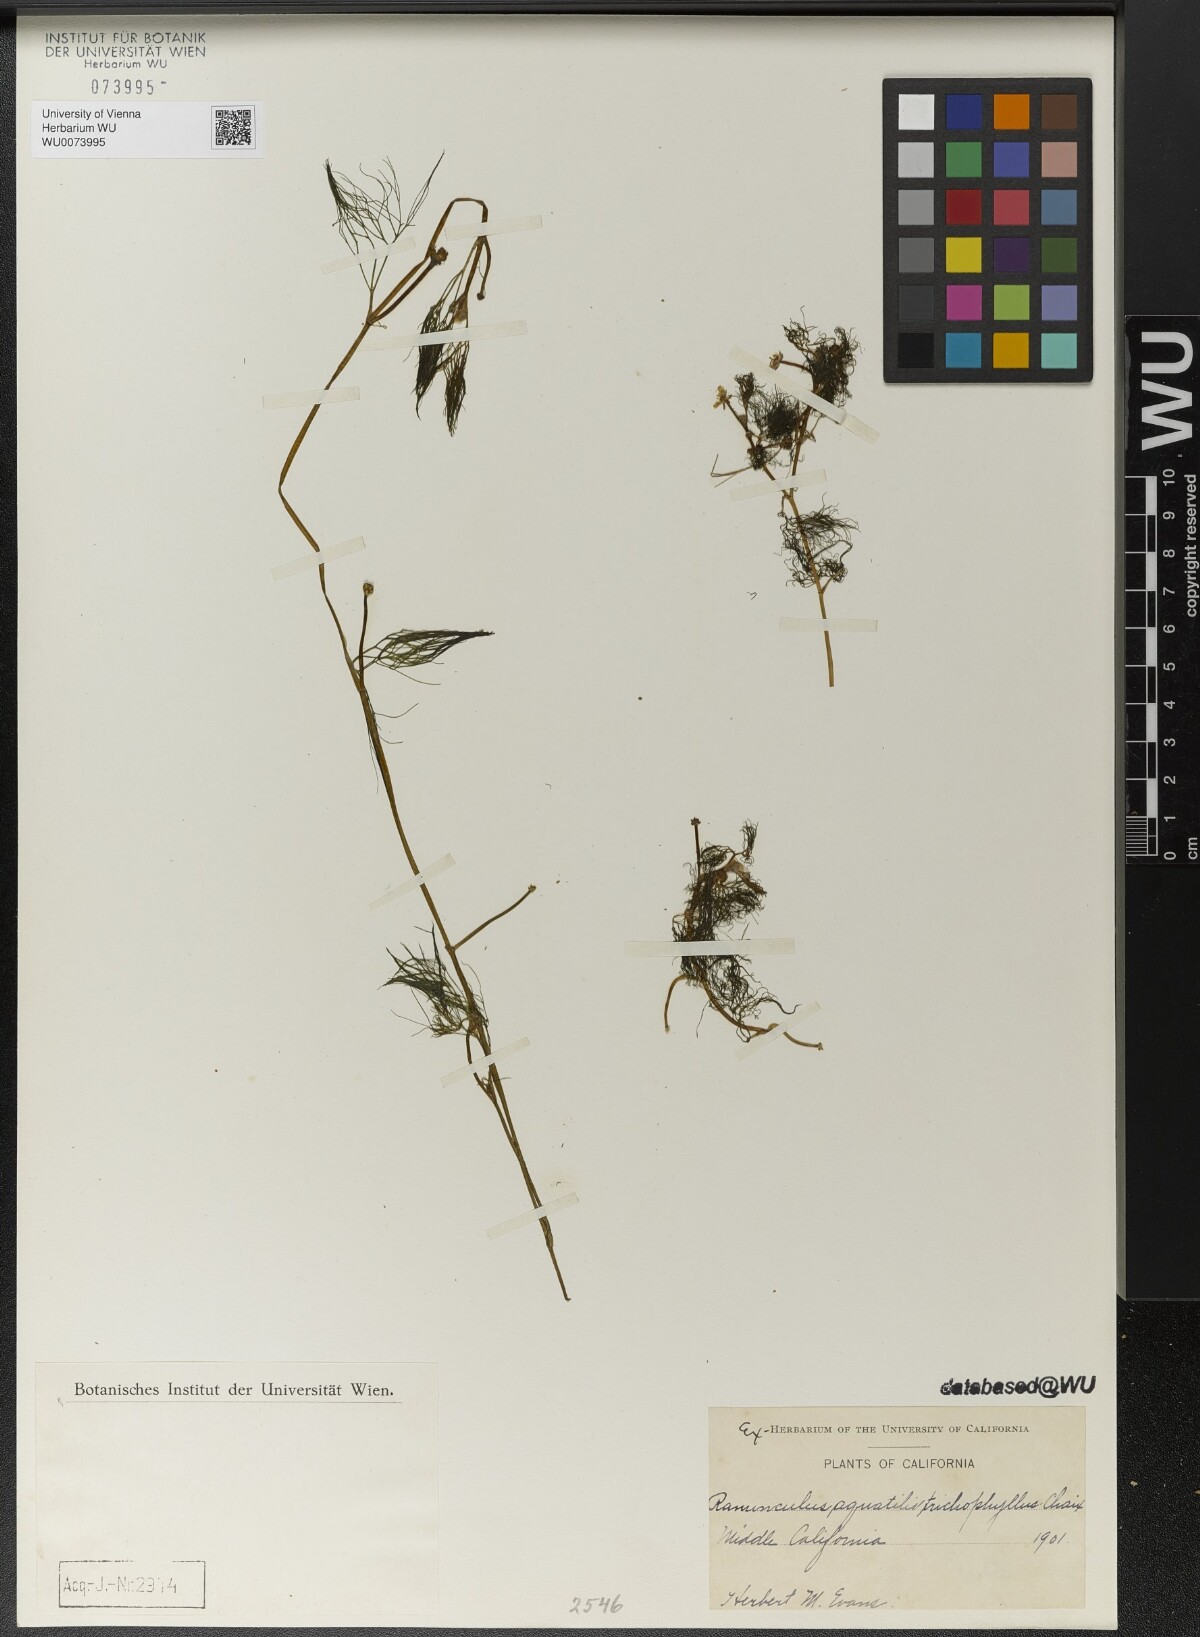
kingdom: Plantae
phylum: Tracheophyta
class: Magnoliopsida
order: Ranunculales
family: Ranunculaceae
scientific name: Ranunculaceae
